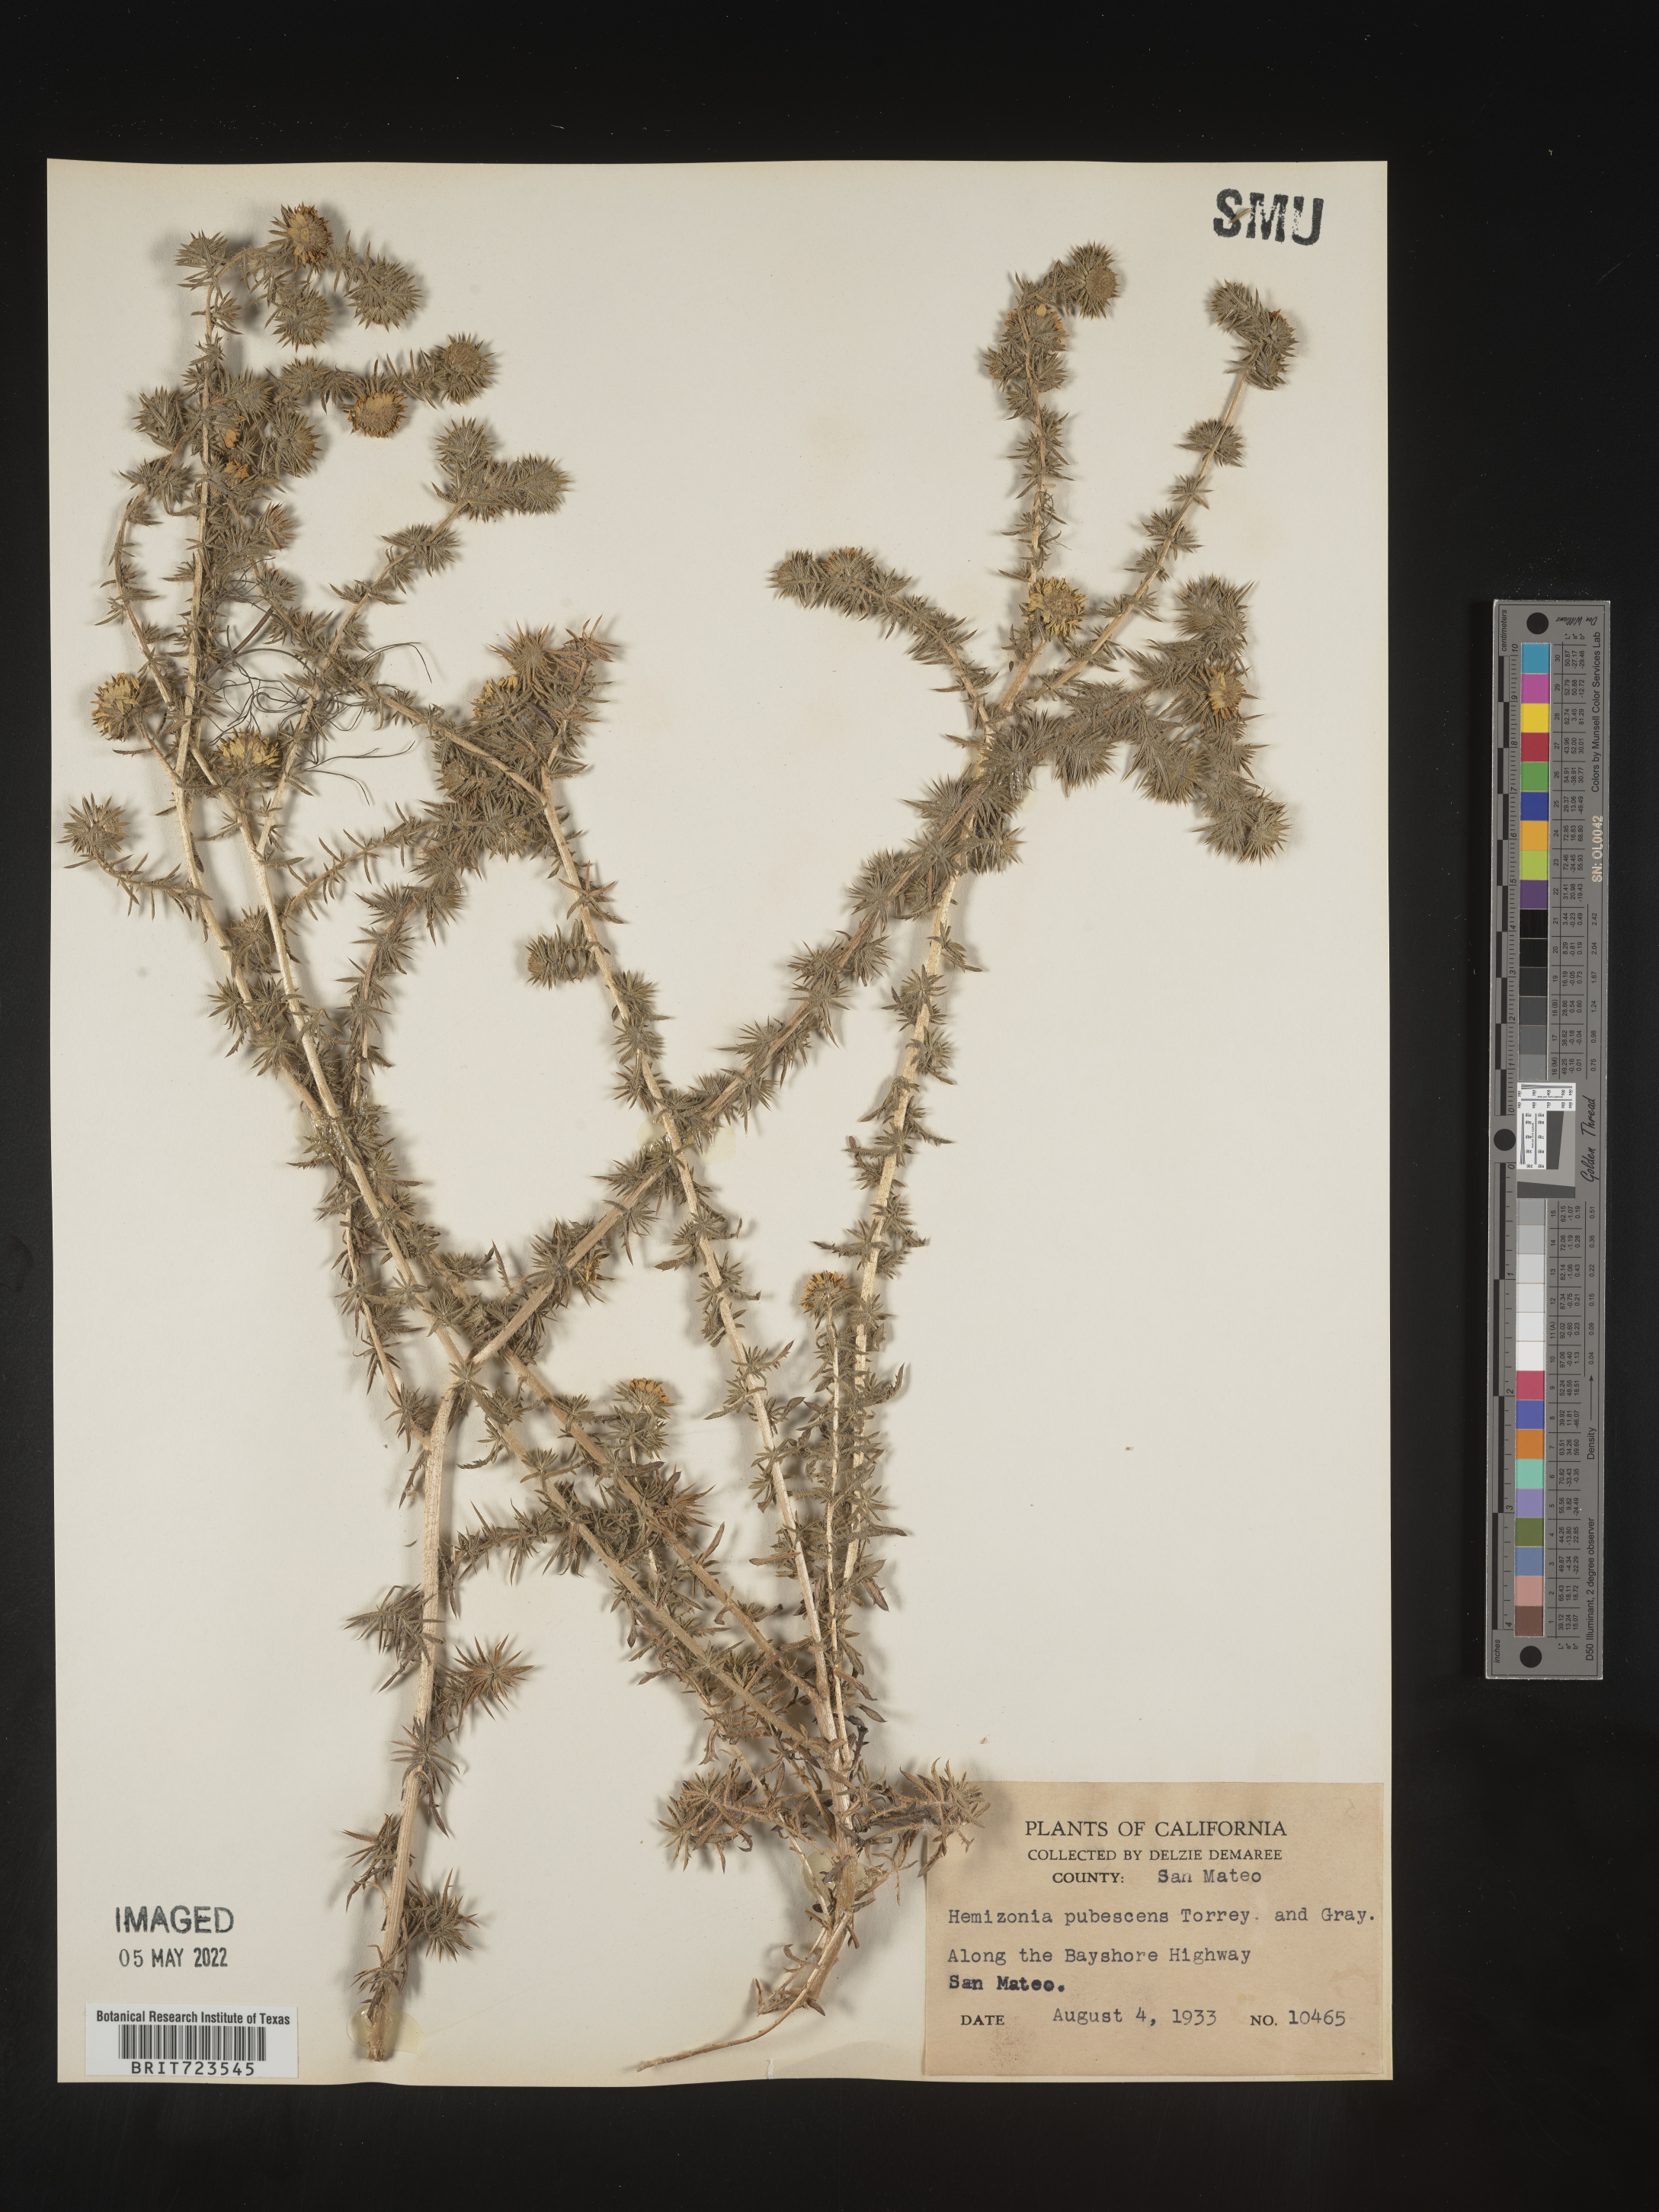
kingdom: Plantae
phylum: Tracheophyta
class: Magnoliopsida
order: Asterales
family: Asteraceae
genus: Hemizonia
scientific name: Hemizonia
